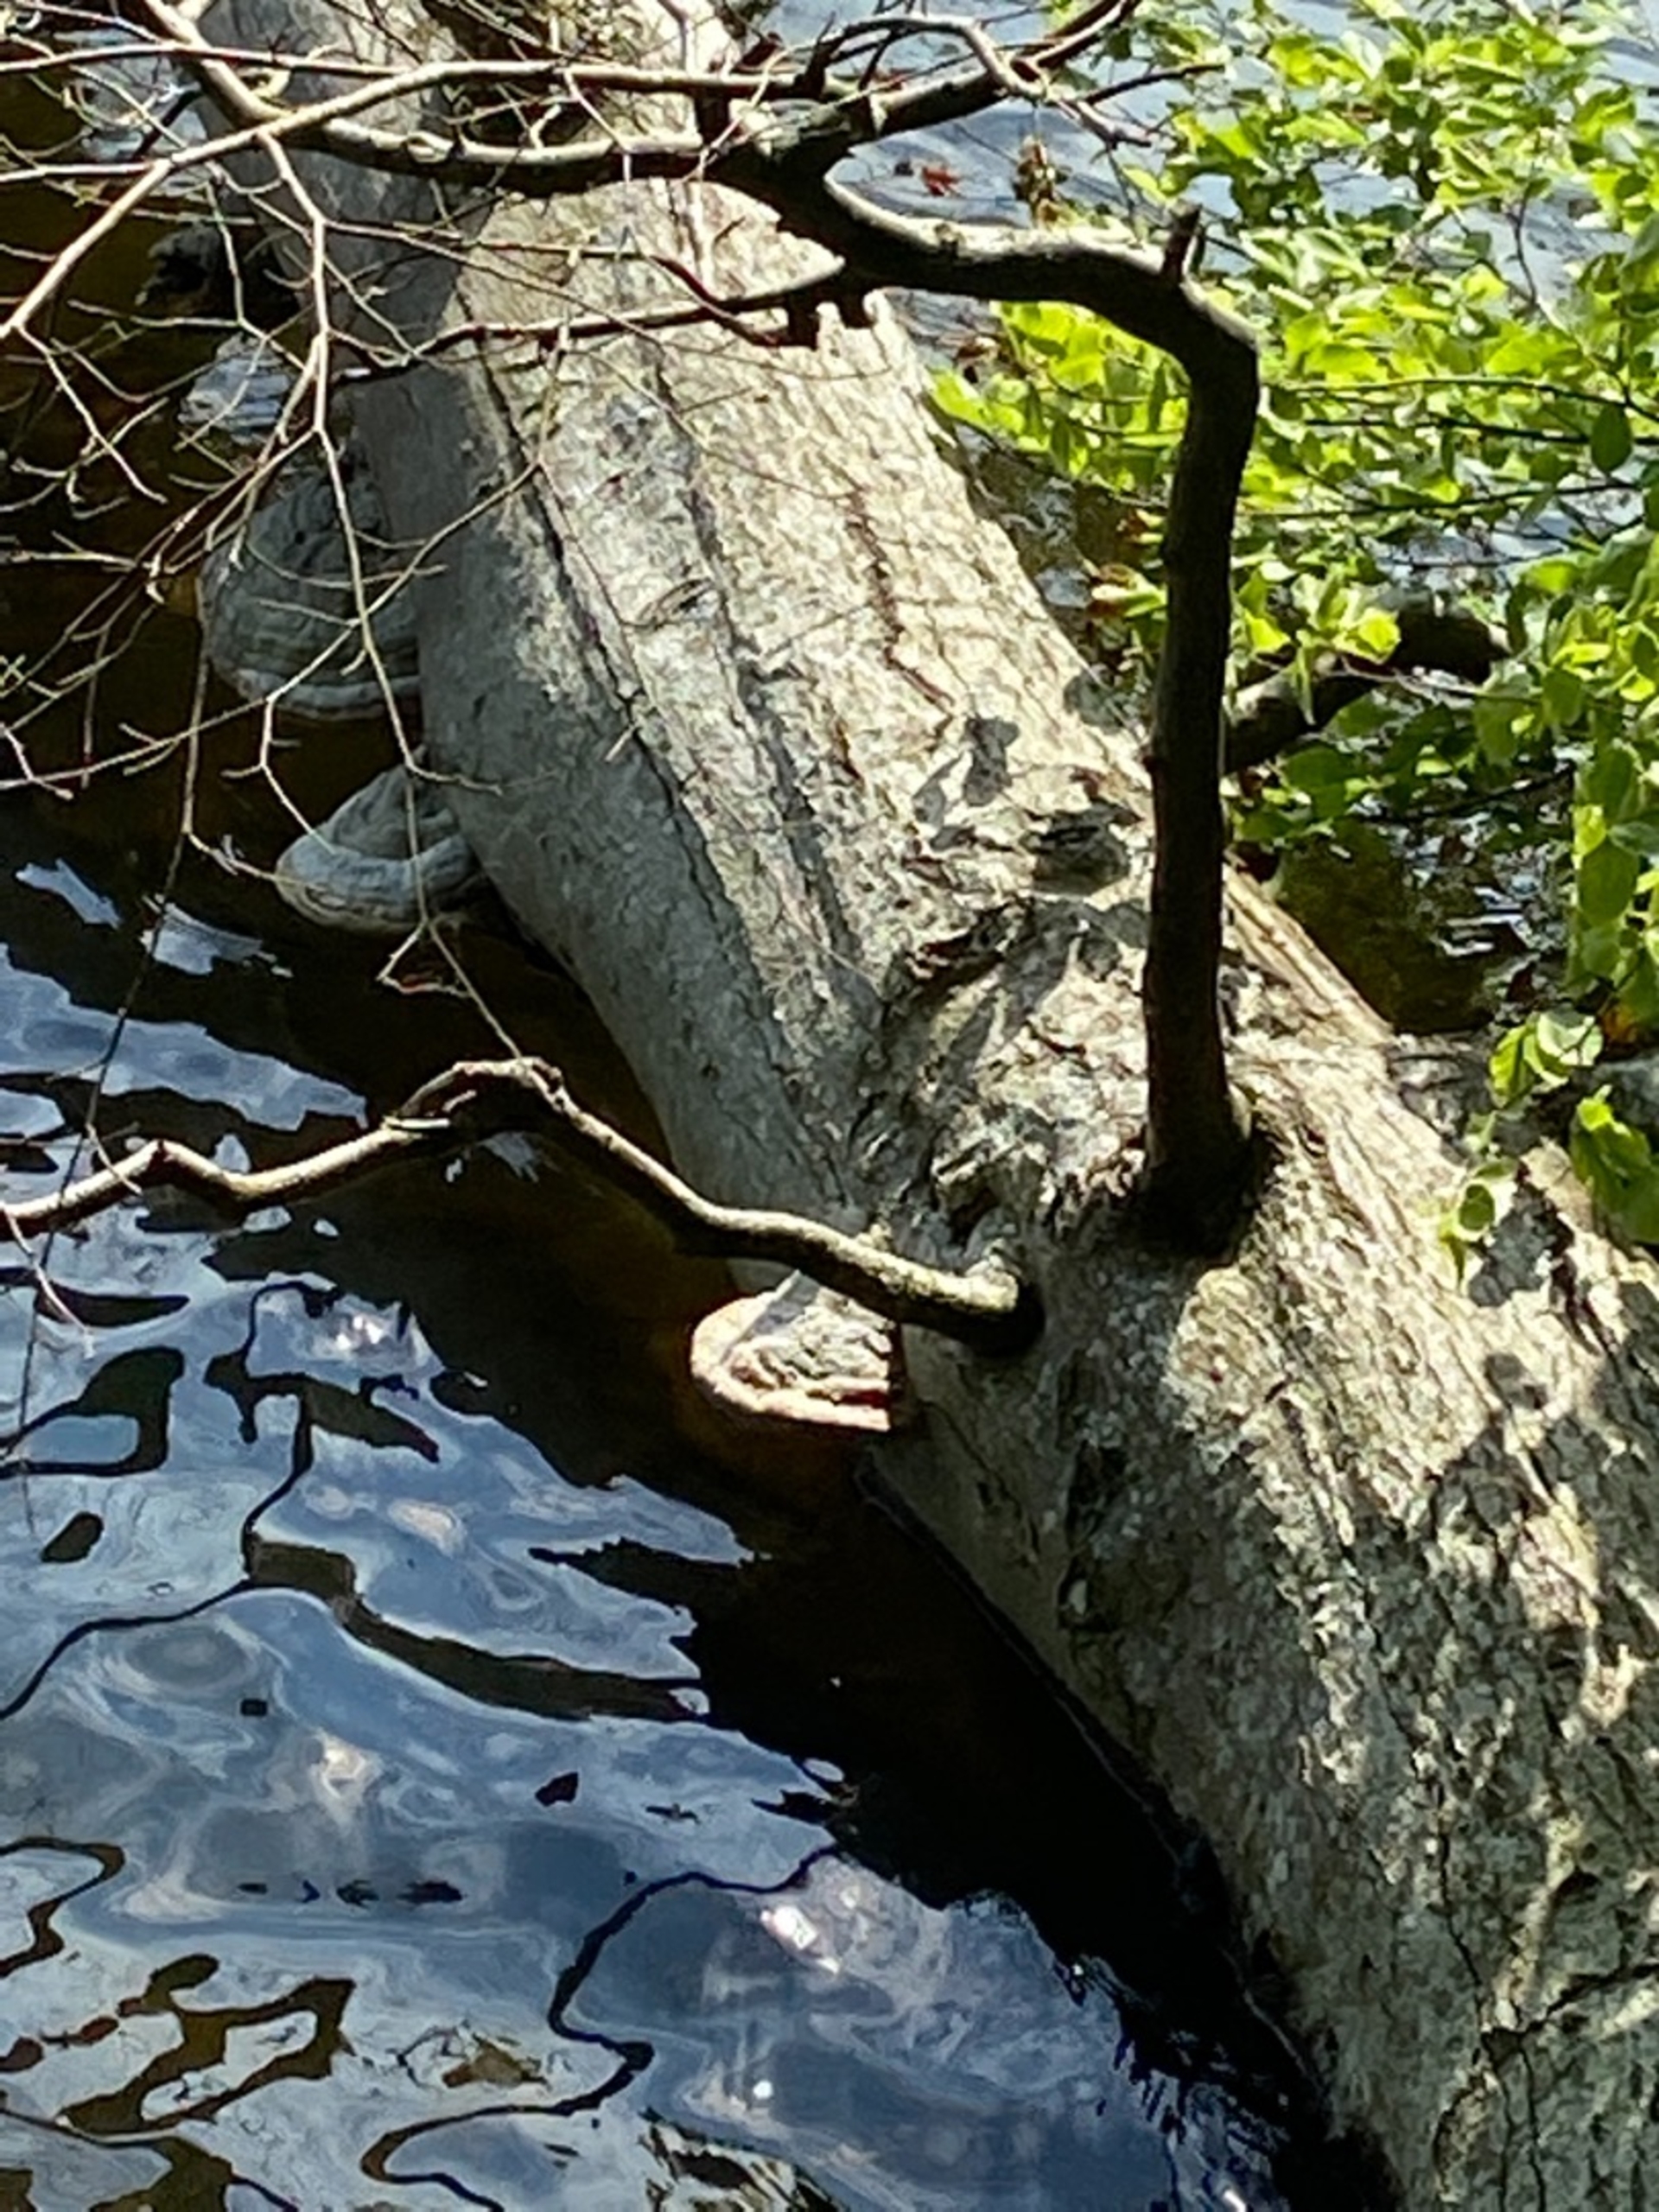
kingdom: Fungi
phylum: Basidiomycota
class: Agaricomycetes
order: Polyporales
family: Polyporaceae
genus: Fomes
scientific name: Fomes
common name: Tøndersvamp
